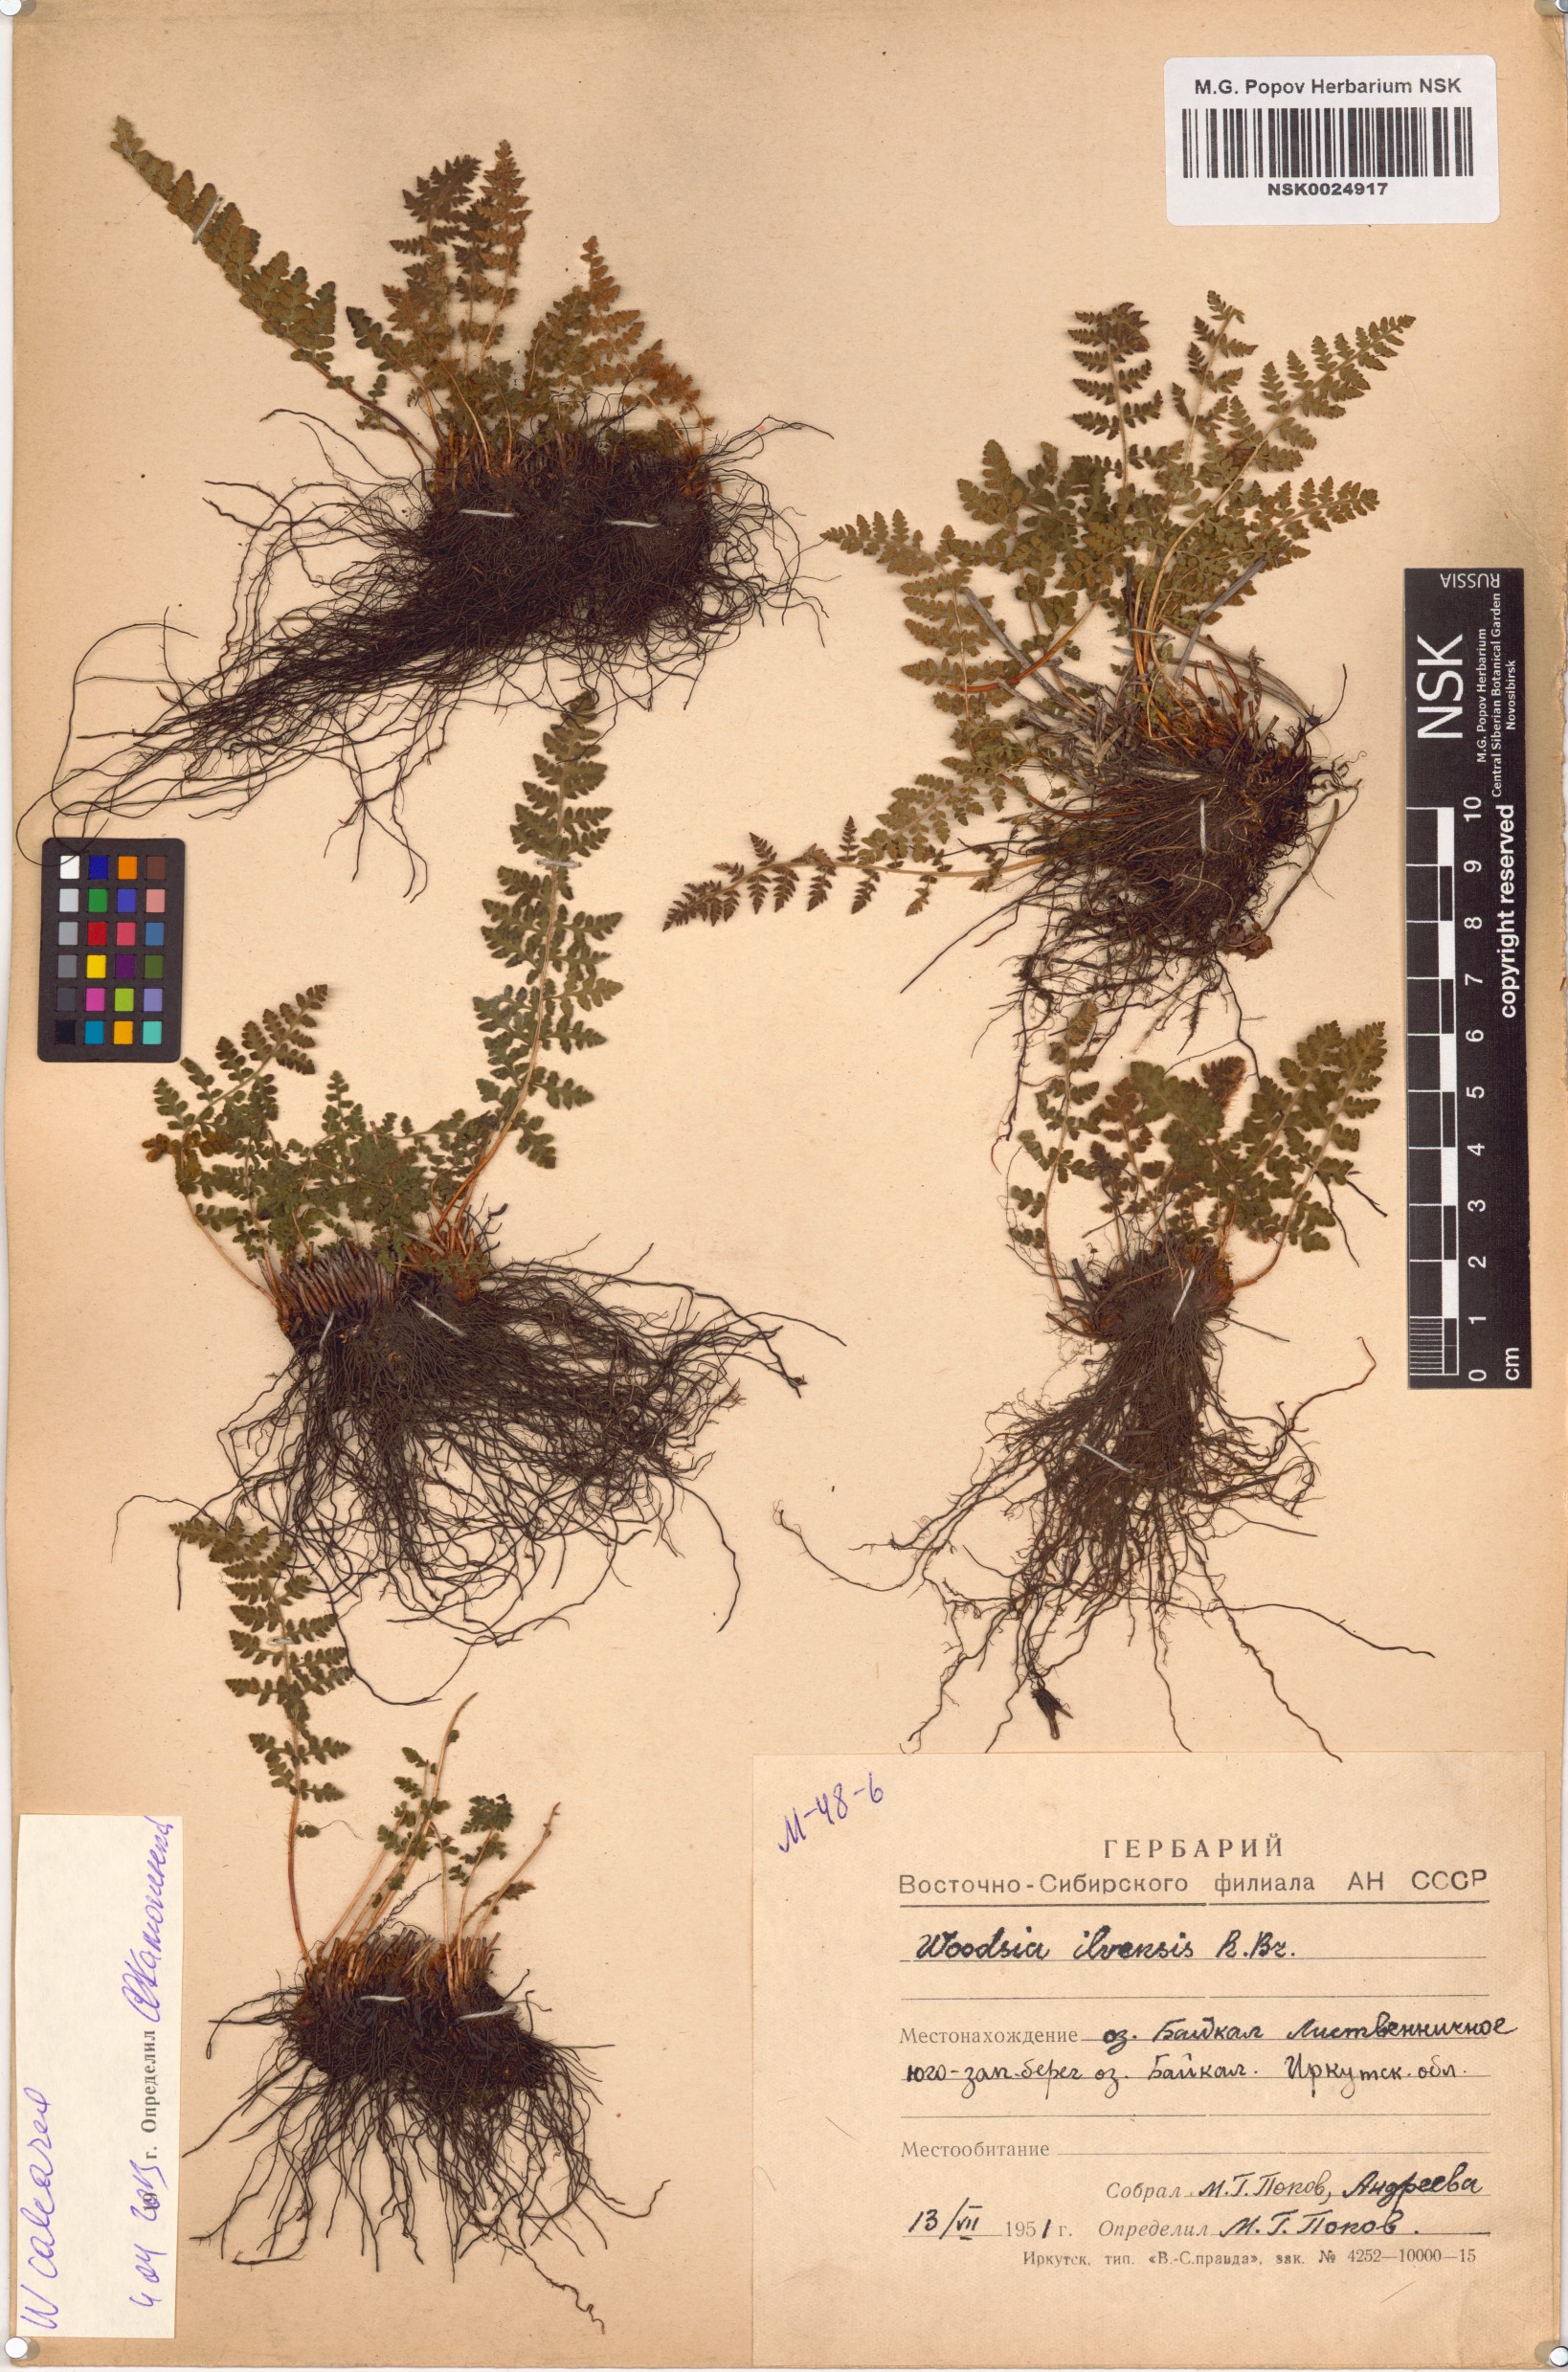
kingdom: Plantae
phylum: Tracheophyta
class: Polypodiopsida
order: Polypodiales
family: Woodsiaceae
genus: Woodsia
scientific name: Woodsia calcarea
